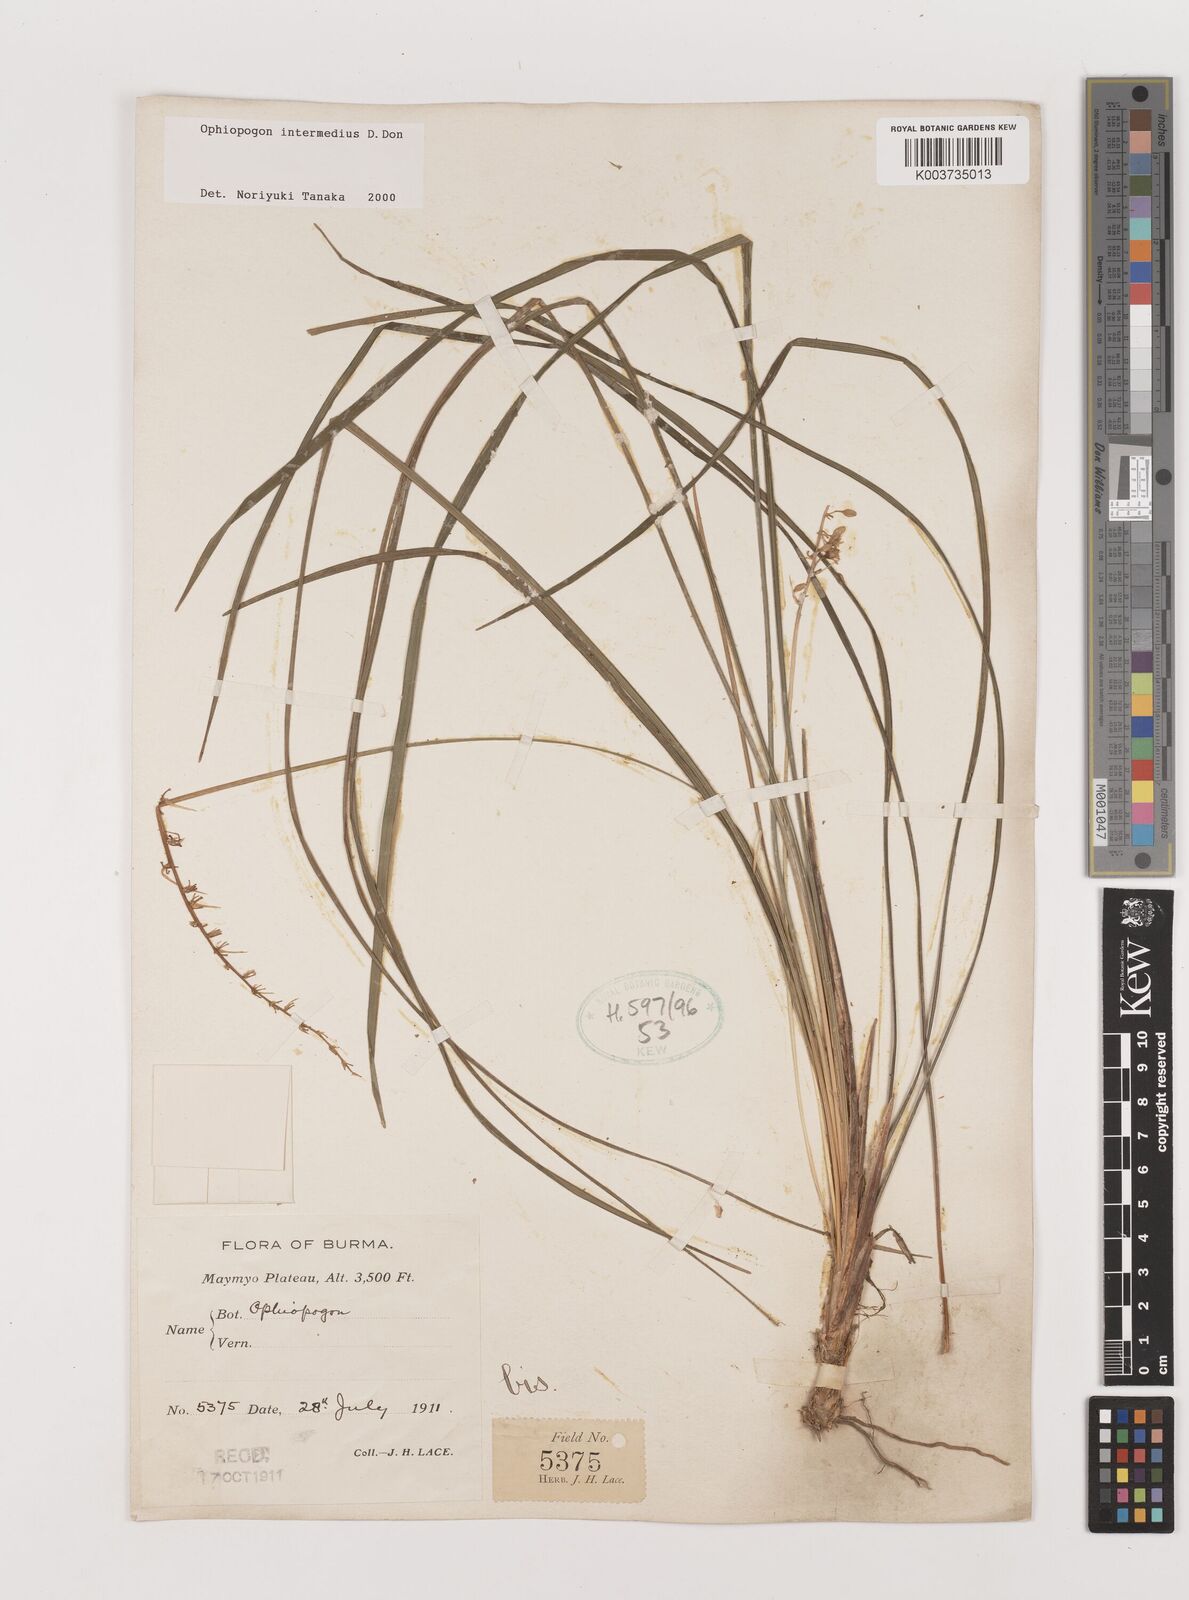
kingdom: Plantae
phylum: Tracheophyta
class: Liliopsida
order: Asparagales
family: Asparagaceae
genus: Ophiopogon
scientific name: Ophiopogon intermedius
